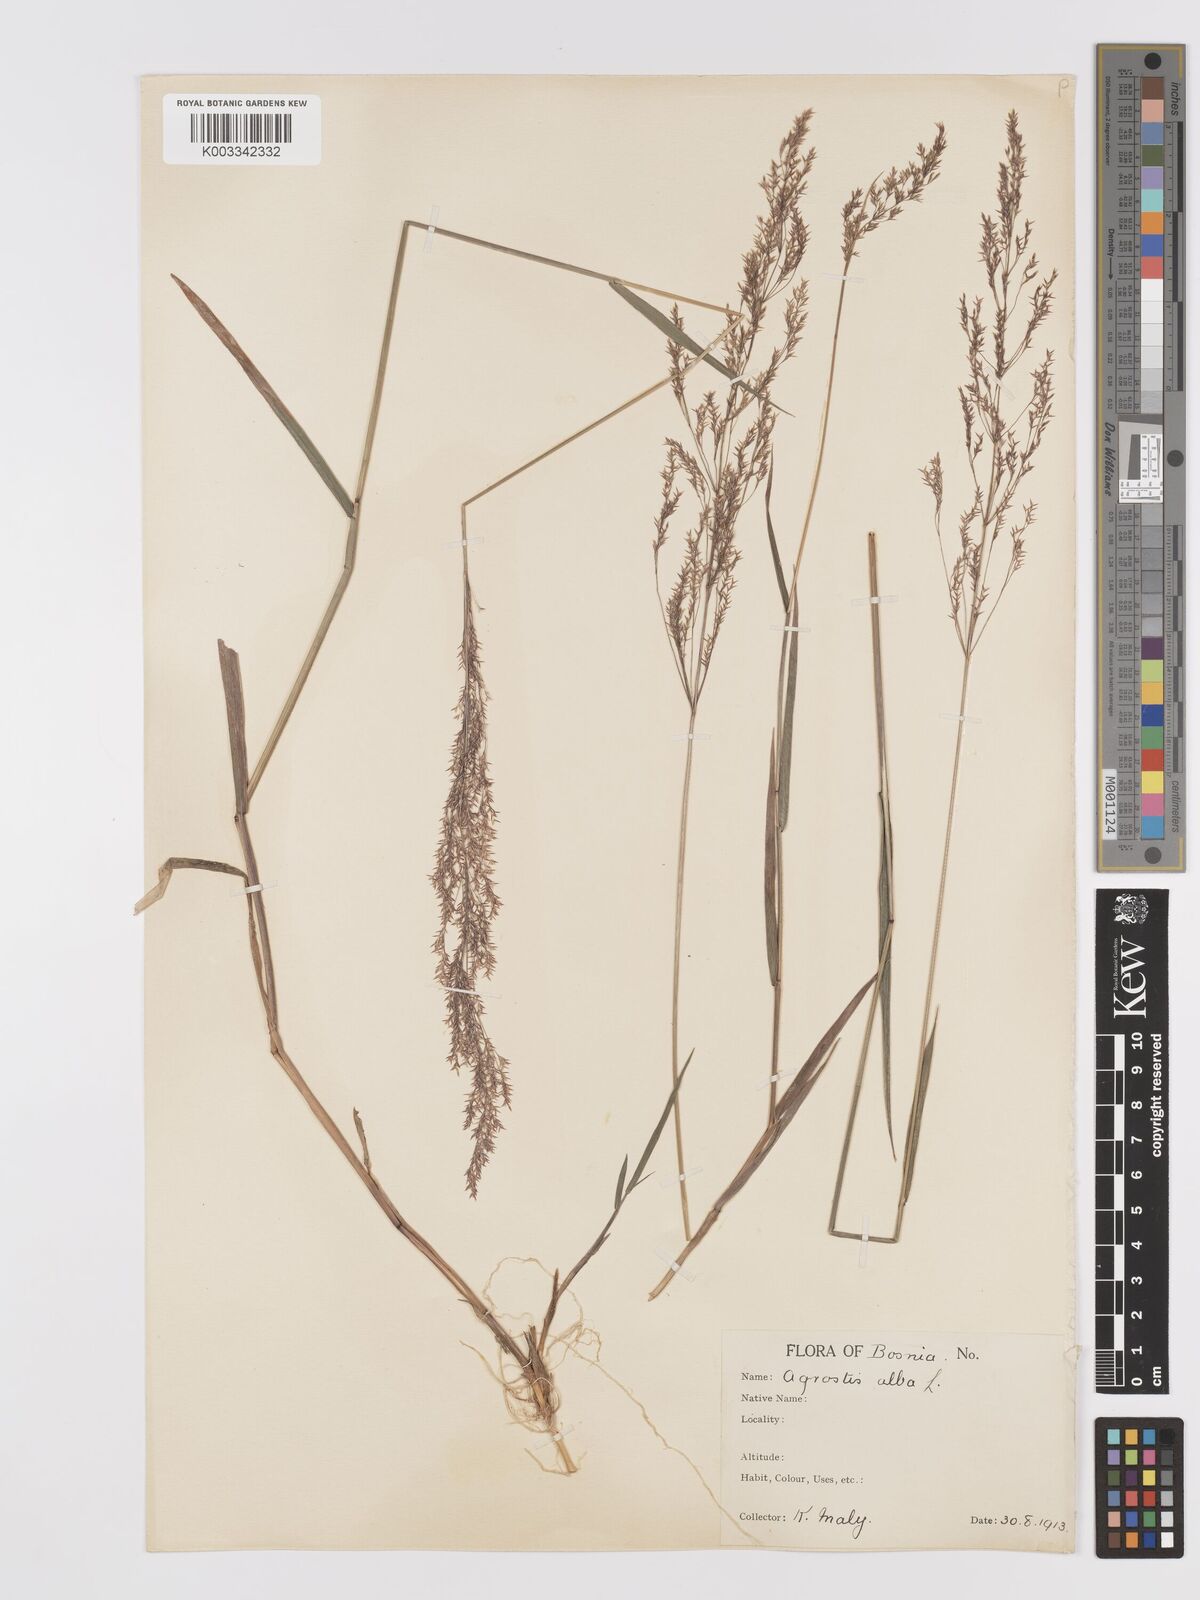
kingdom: Plantae
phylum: Tracheophyta
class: Liliopsida
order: Poales
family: Poaceae
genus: Agrostis
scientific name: Agrostis gigantea
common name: Black bent
